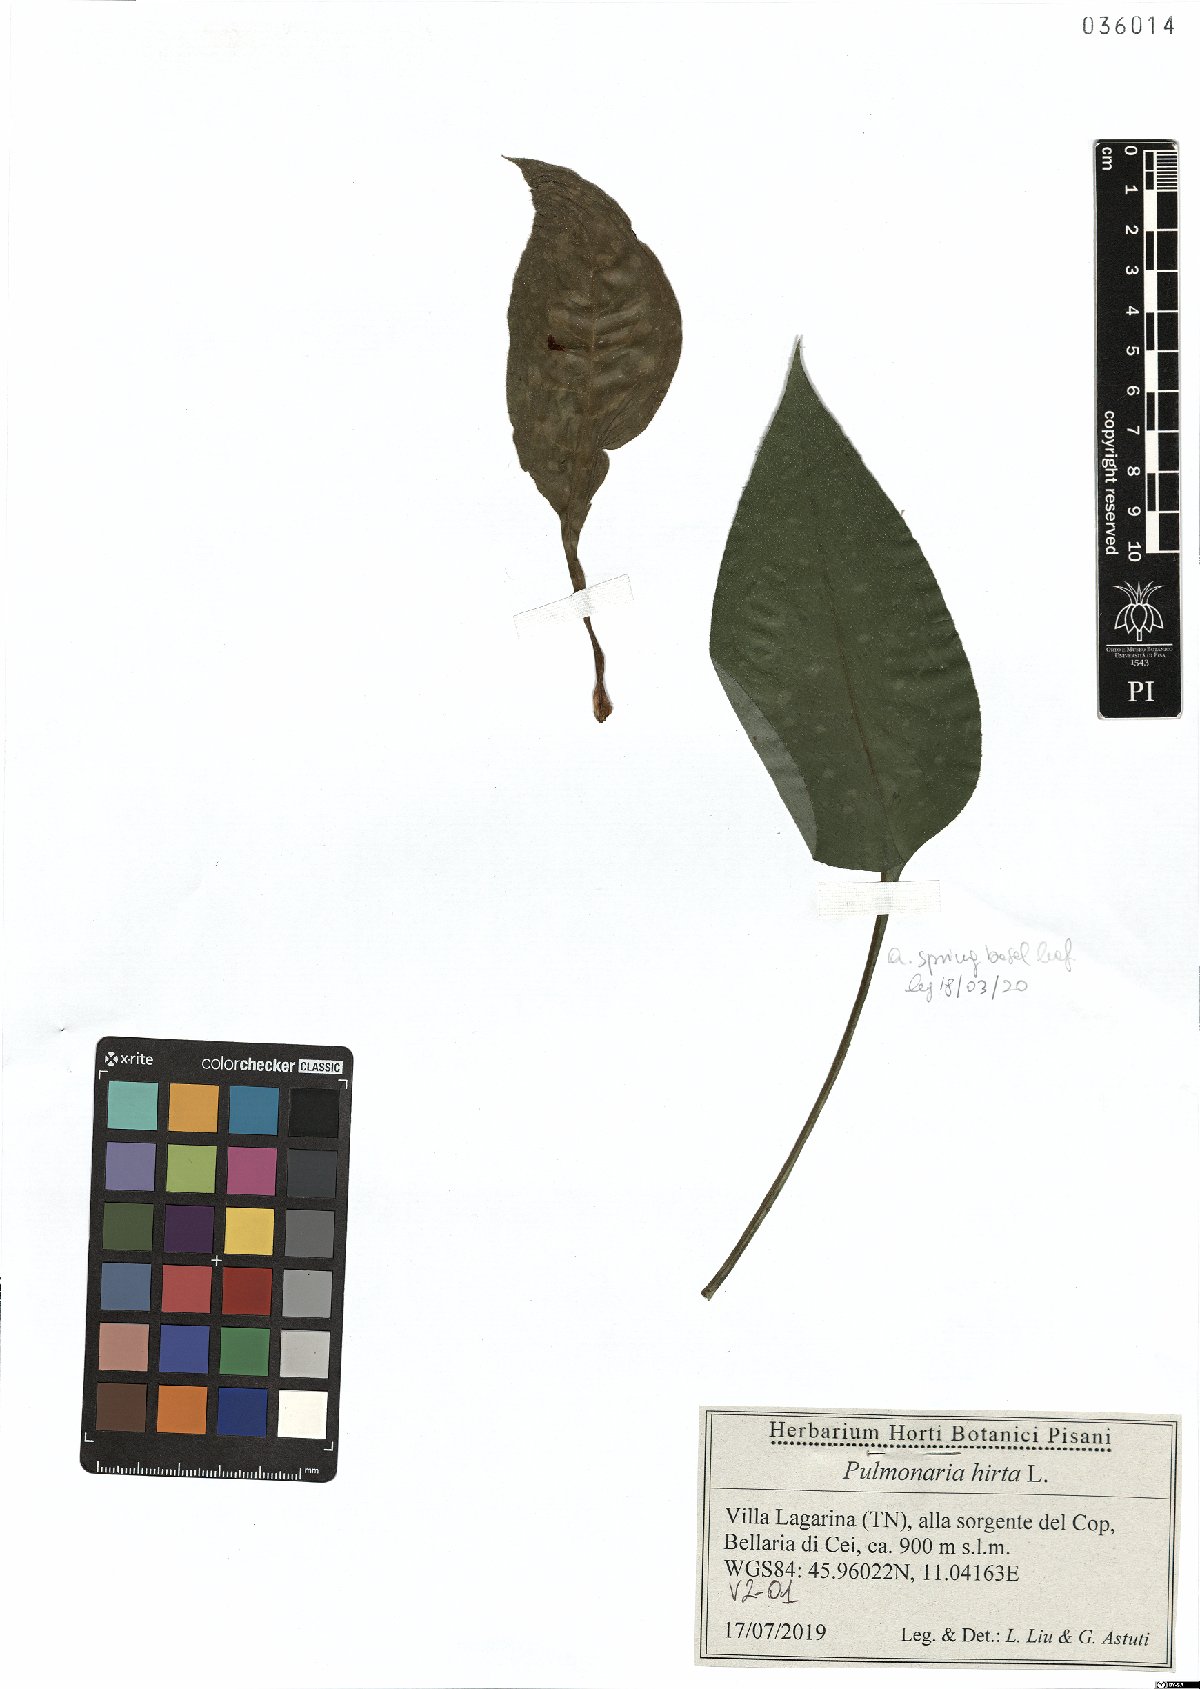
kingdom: Plantae
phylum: Tracheophyta
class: Magnoliopsida
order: Boraginales
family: Boraginaceae
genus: Pulmonaria
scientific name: Pulmonaria hirta
